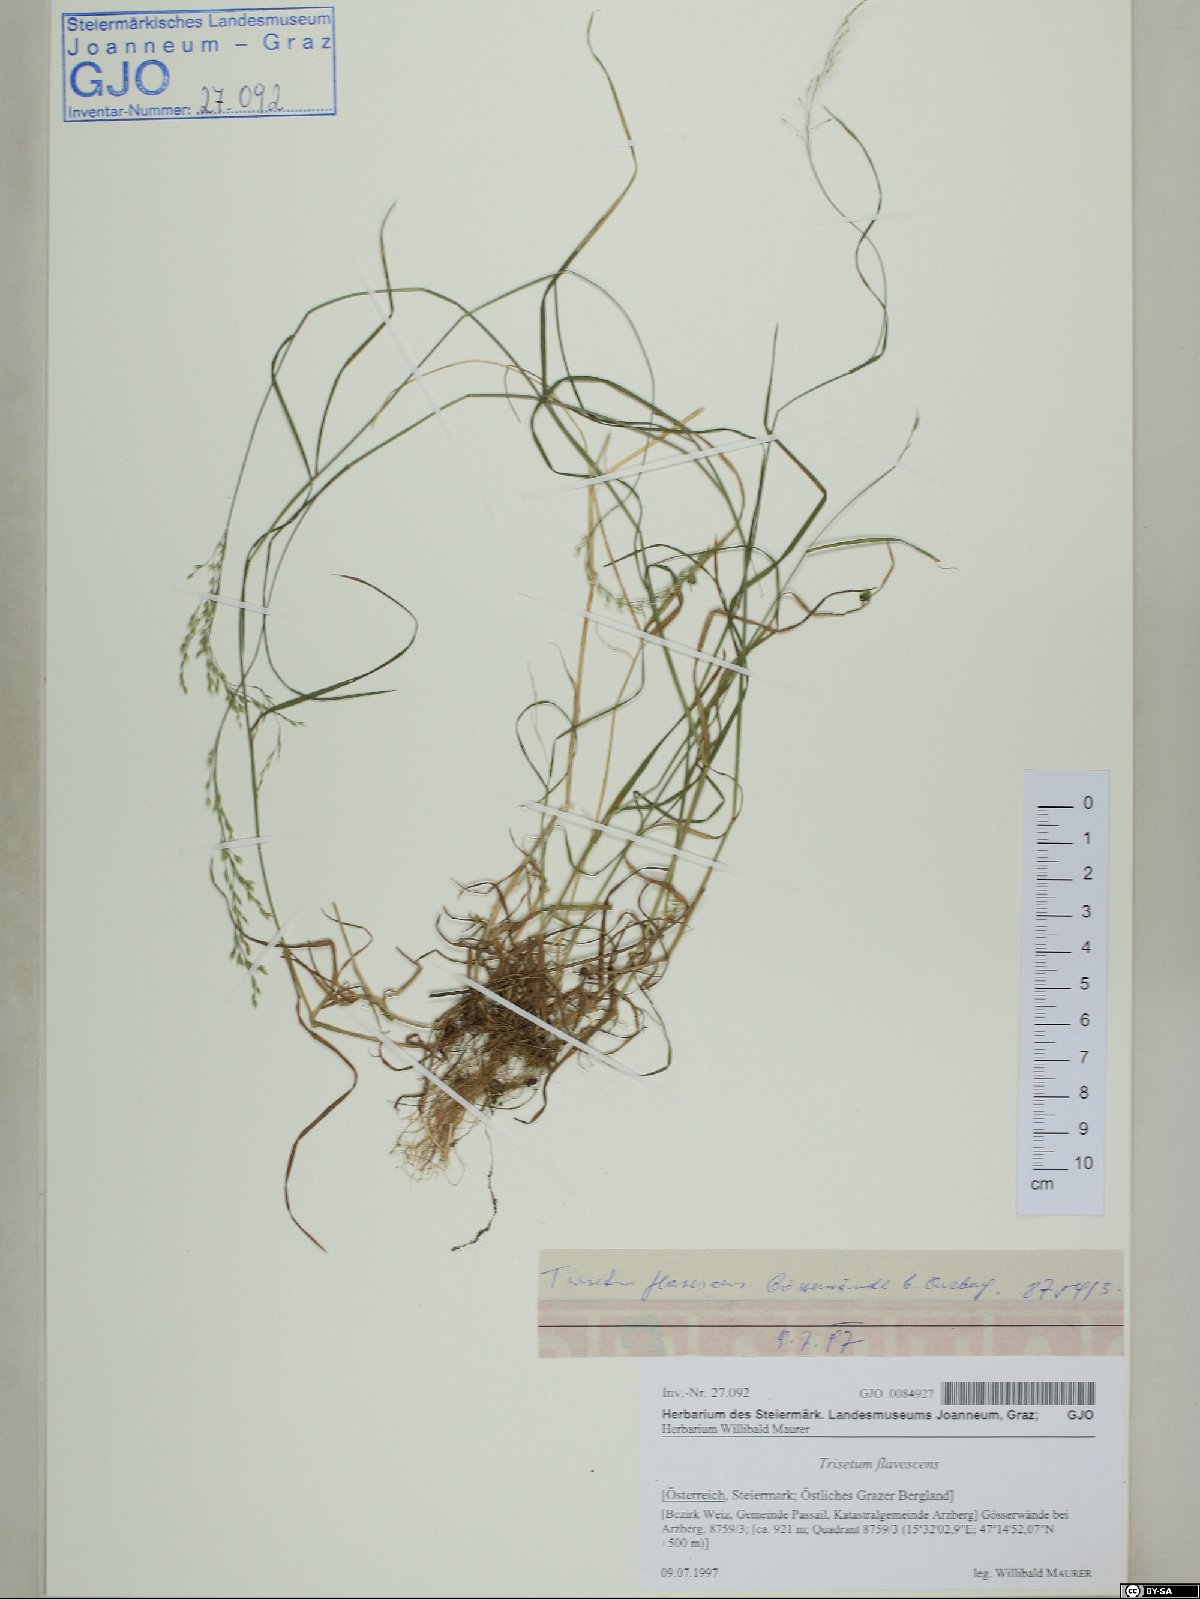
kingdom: Plantae
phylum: Tracheophyta
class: Liliopsida
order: Poales
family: Poaceae
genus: Trisetum
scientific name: Trisetum flavescens
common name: Yellow oat-grass
